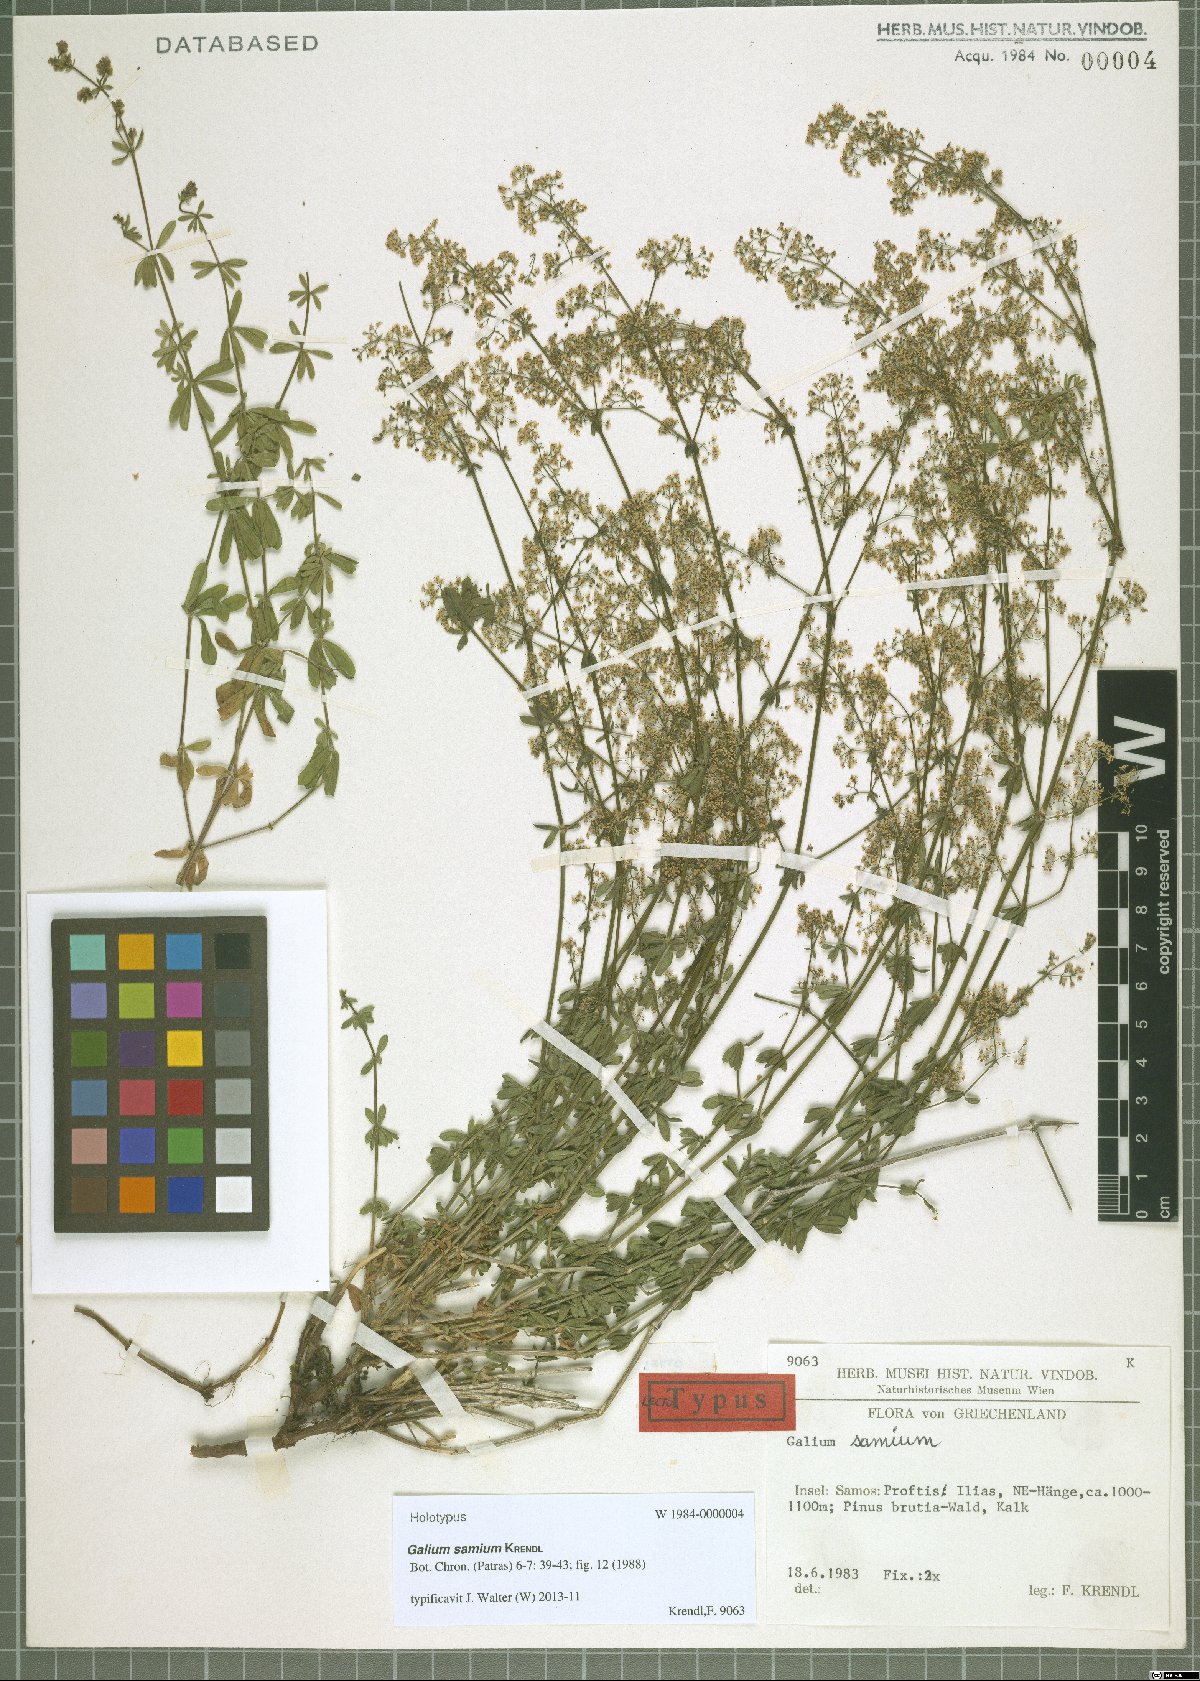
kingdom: Plantae
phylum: Tracheophyta
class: Magnoliopsida
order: Gentianales
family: Rubiaceae
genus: Galium
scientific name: Galium samium
